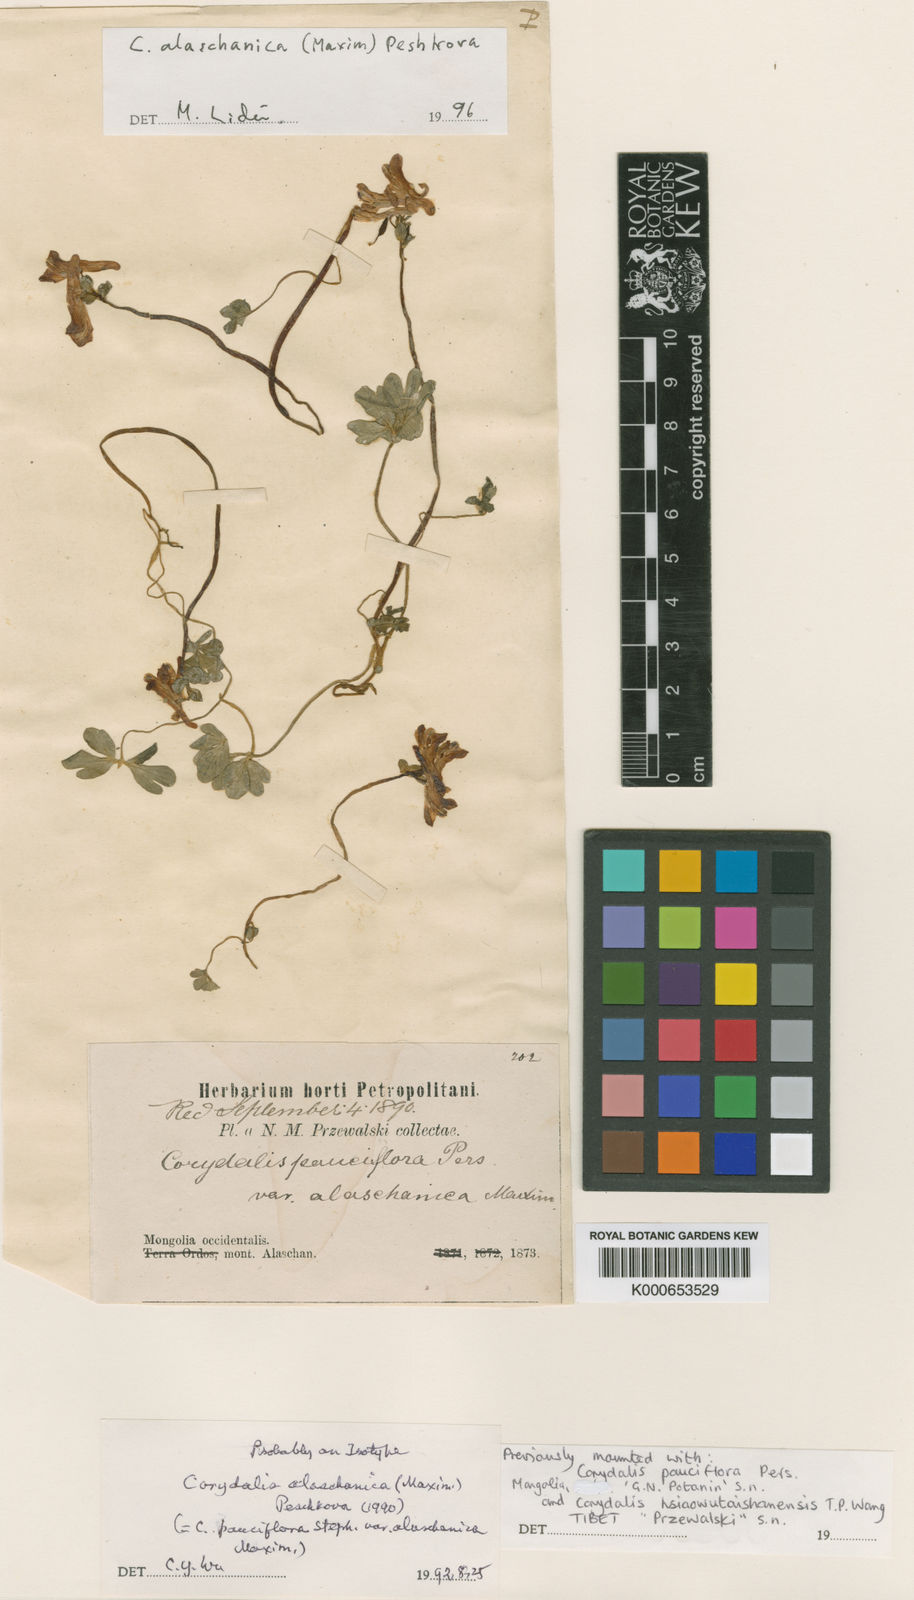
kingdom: Plantae
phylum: Tracheophyta
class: Magnoliopsida
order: Ranunculales
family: Papaveraceae
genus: Corydalis
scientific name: Corydalis alaschanica
